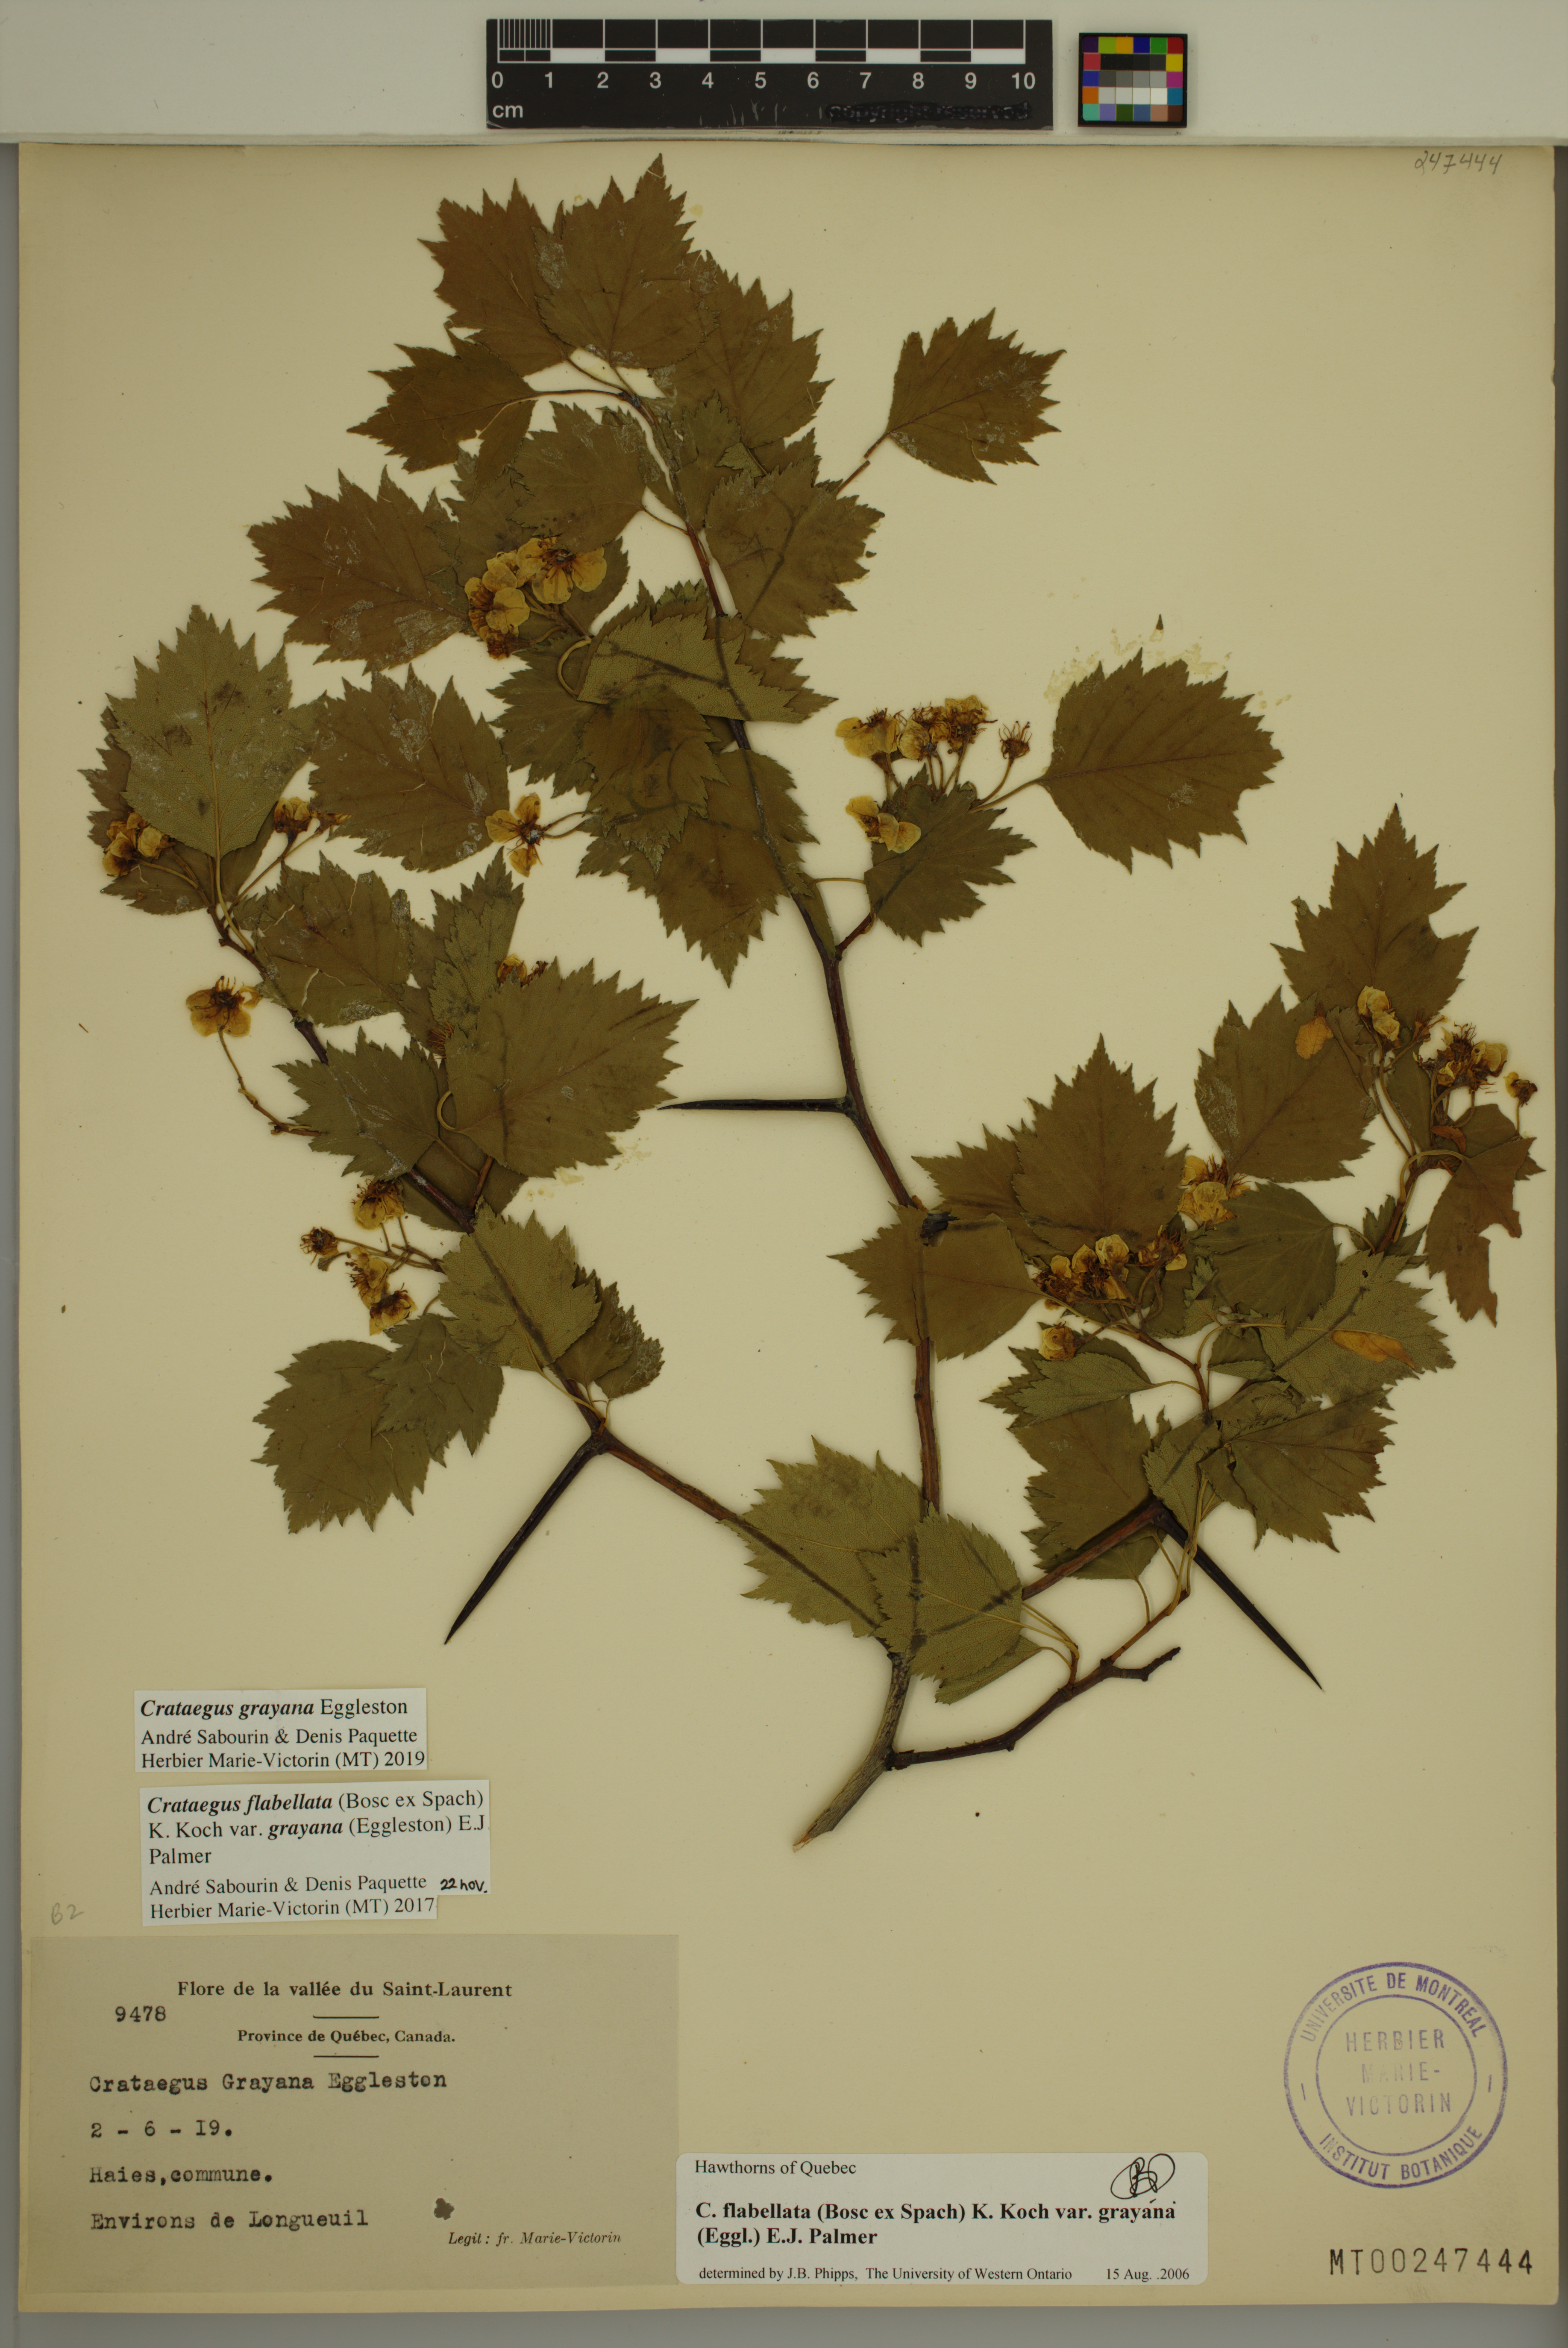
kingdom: Plantae
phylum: Tracheophyta
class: Magnoliopsida
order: Rosales
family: Rosaceae
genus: Crataegus
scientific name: Crataegus schuettei
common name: Schuette's hawthorn
